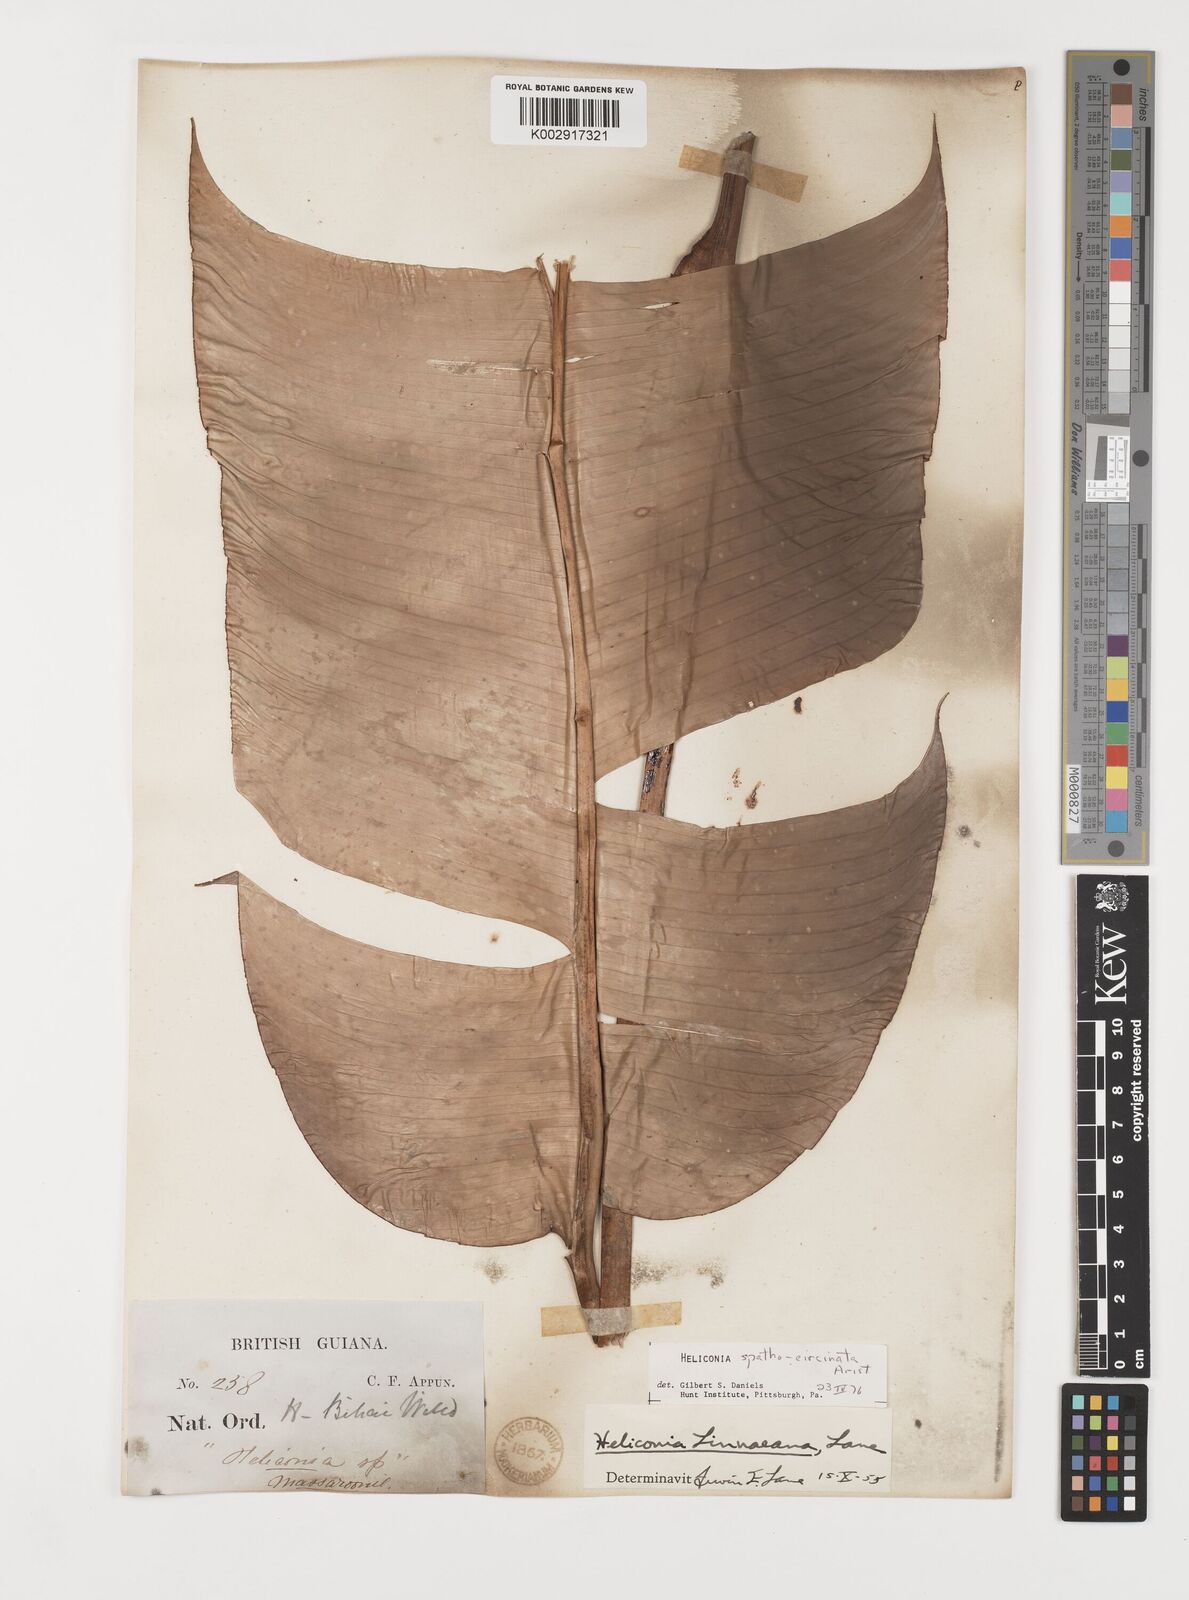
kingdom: Plantae
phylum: Tracheophyta
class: Liliopsida
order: Zingiberales
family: Heliconiaceae
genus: Heliconia
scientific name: Heliconia spathocircinata
